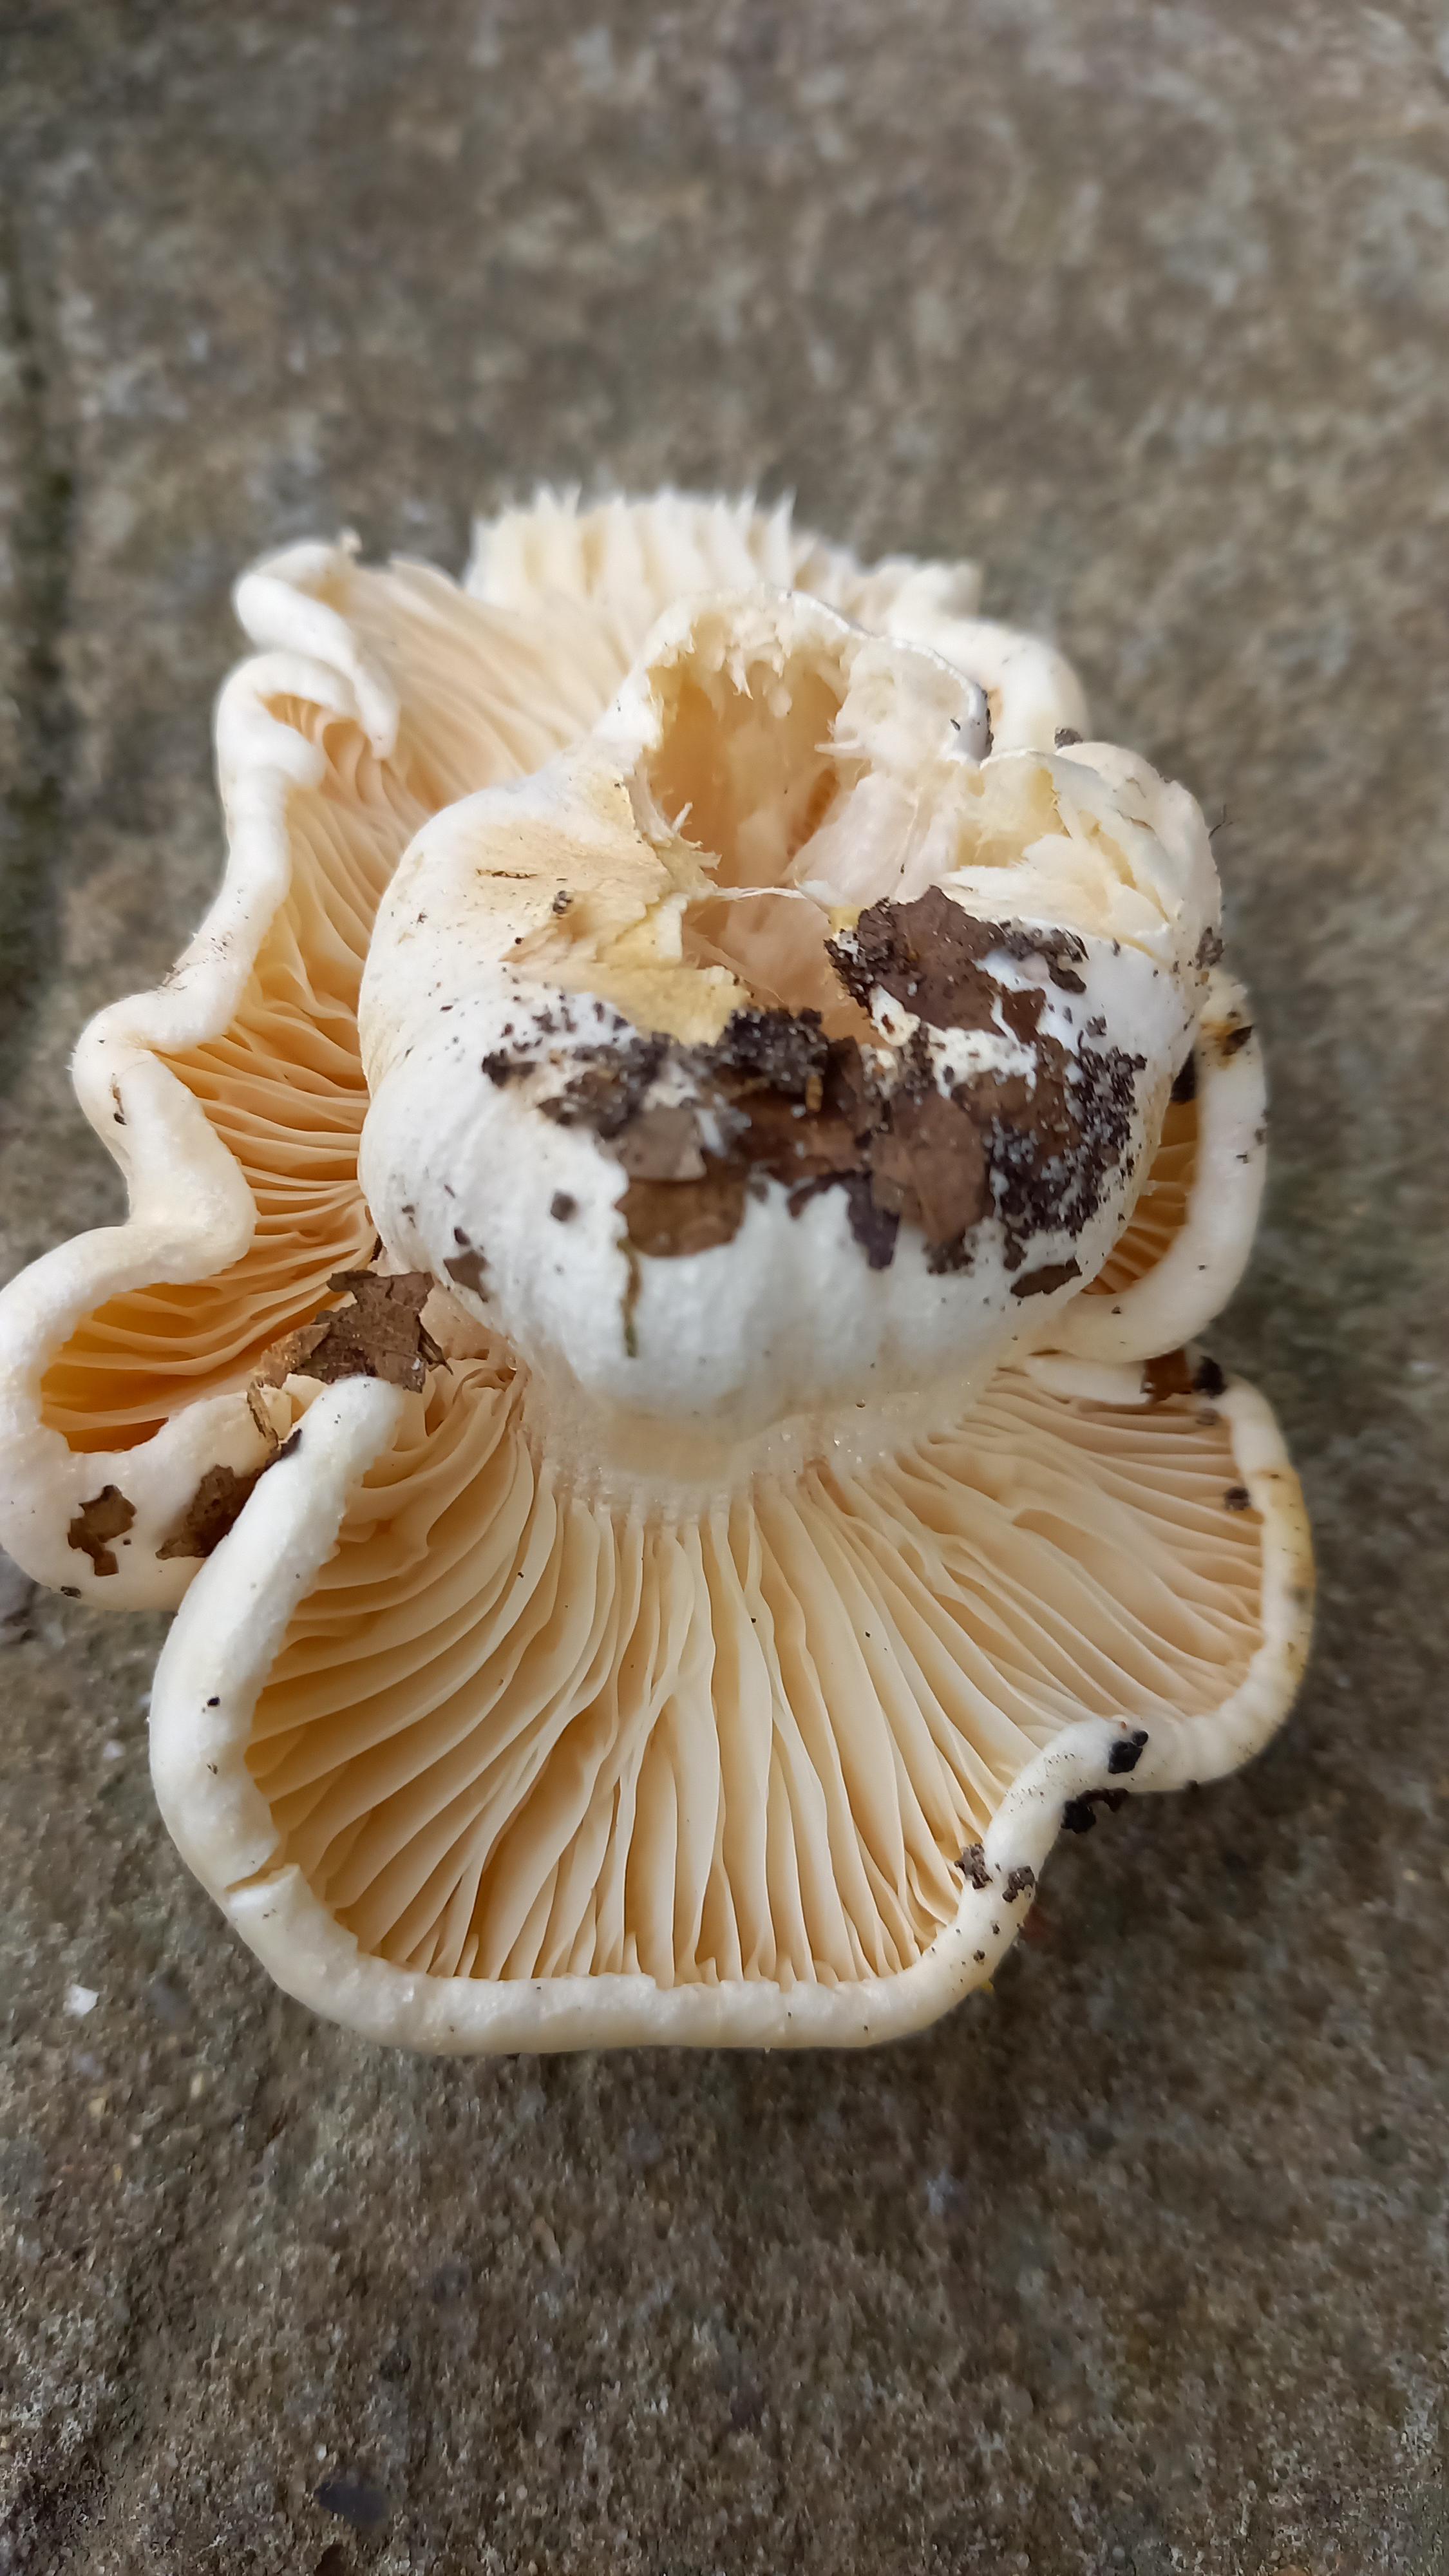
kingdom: Fungi
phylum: Basidiomycota
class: Agaricomycetes
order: Agaricales
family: Hygrophoraceae
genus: Hygrophorus
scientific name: Hygrophorus penarius
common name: spiselig sneglehat
